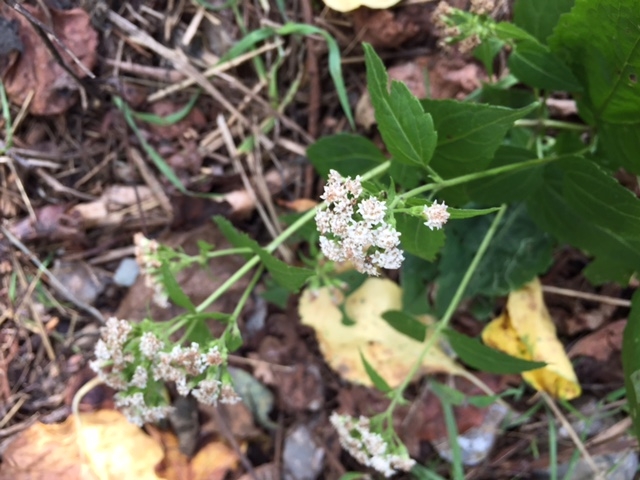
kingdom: Plantae
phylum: Tracheophyta
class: Magnoliopsida
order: Asterales
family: Asteraceae
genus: Ageratina
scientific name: Ageratina altissima
